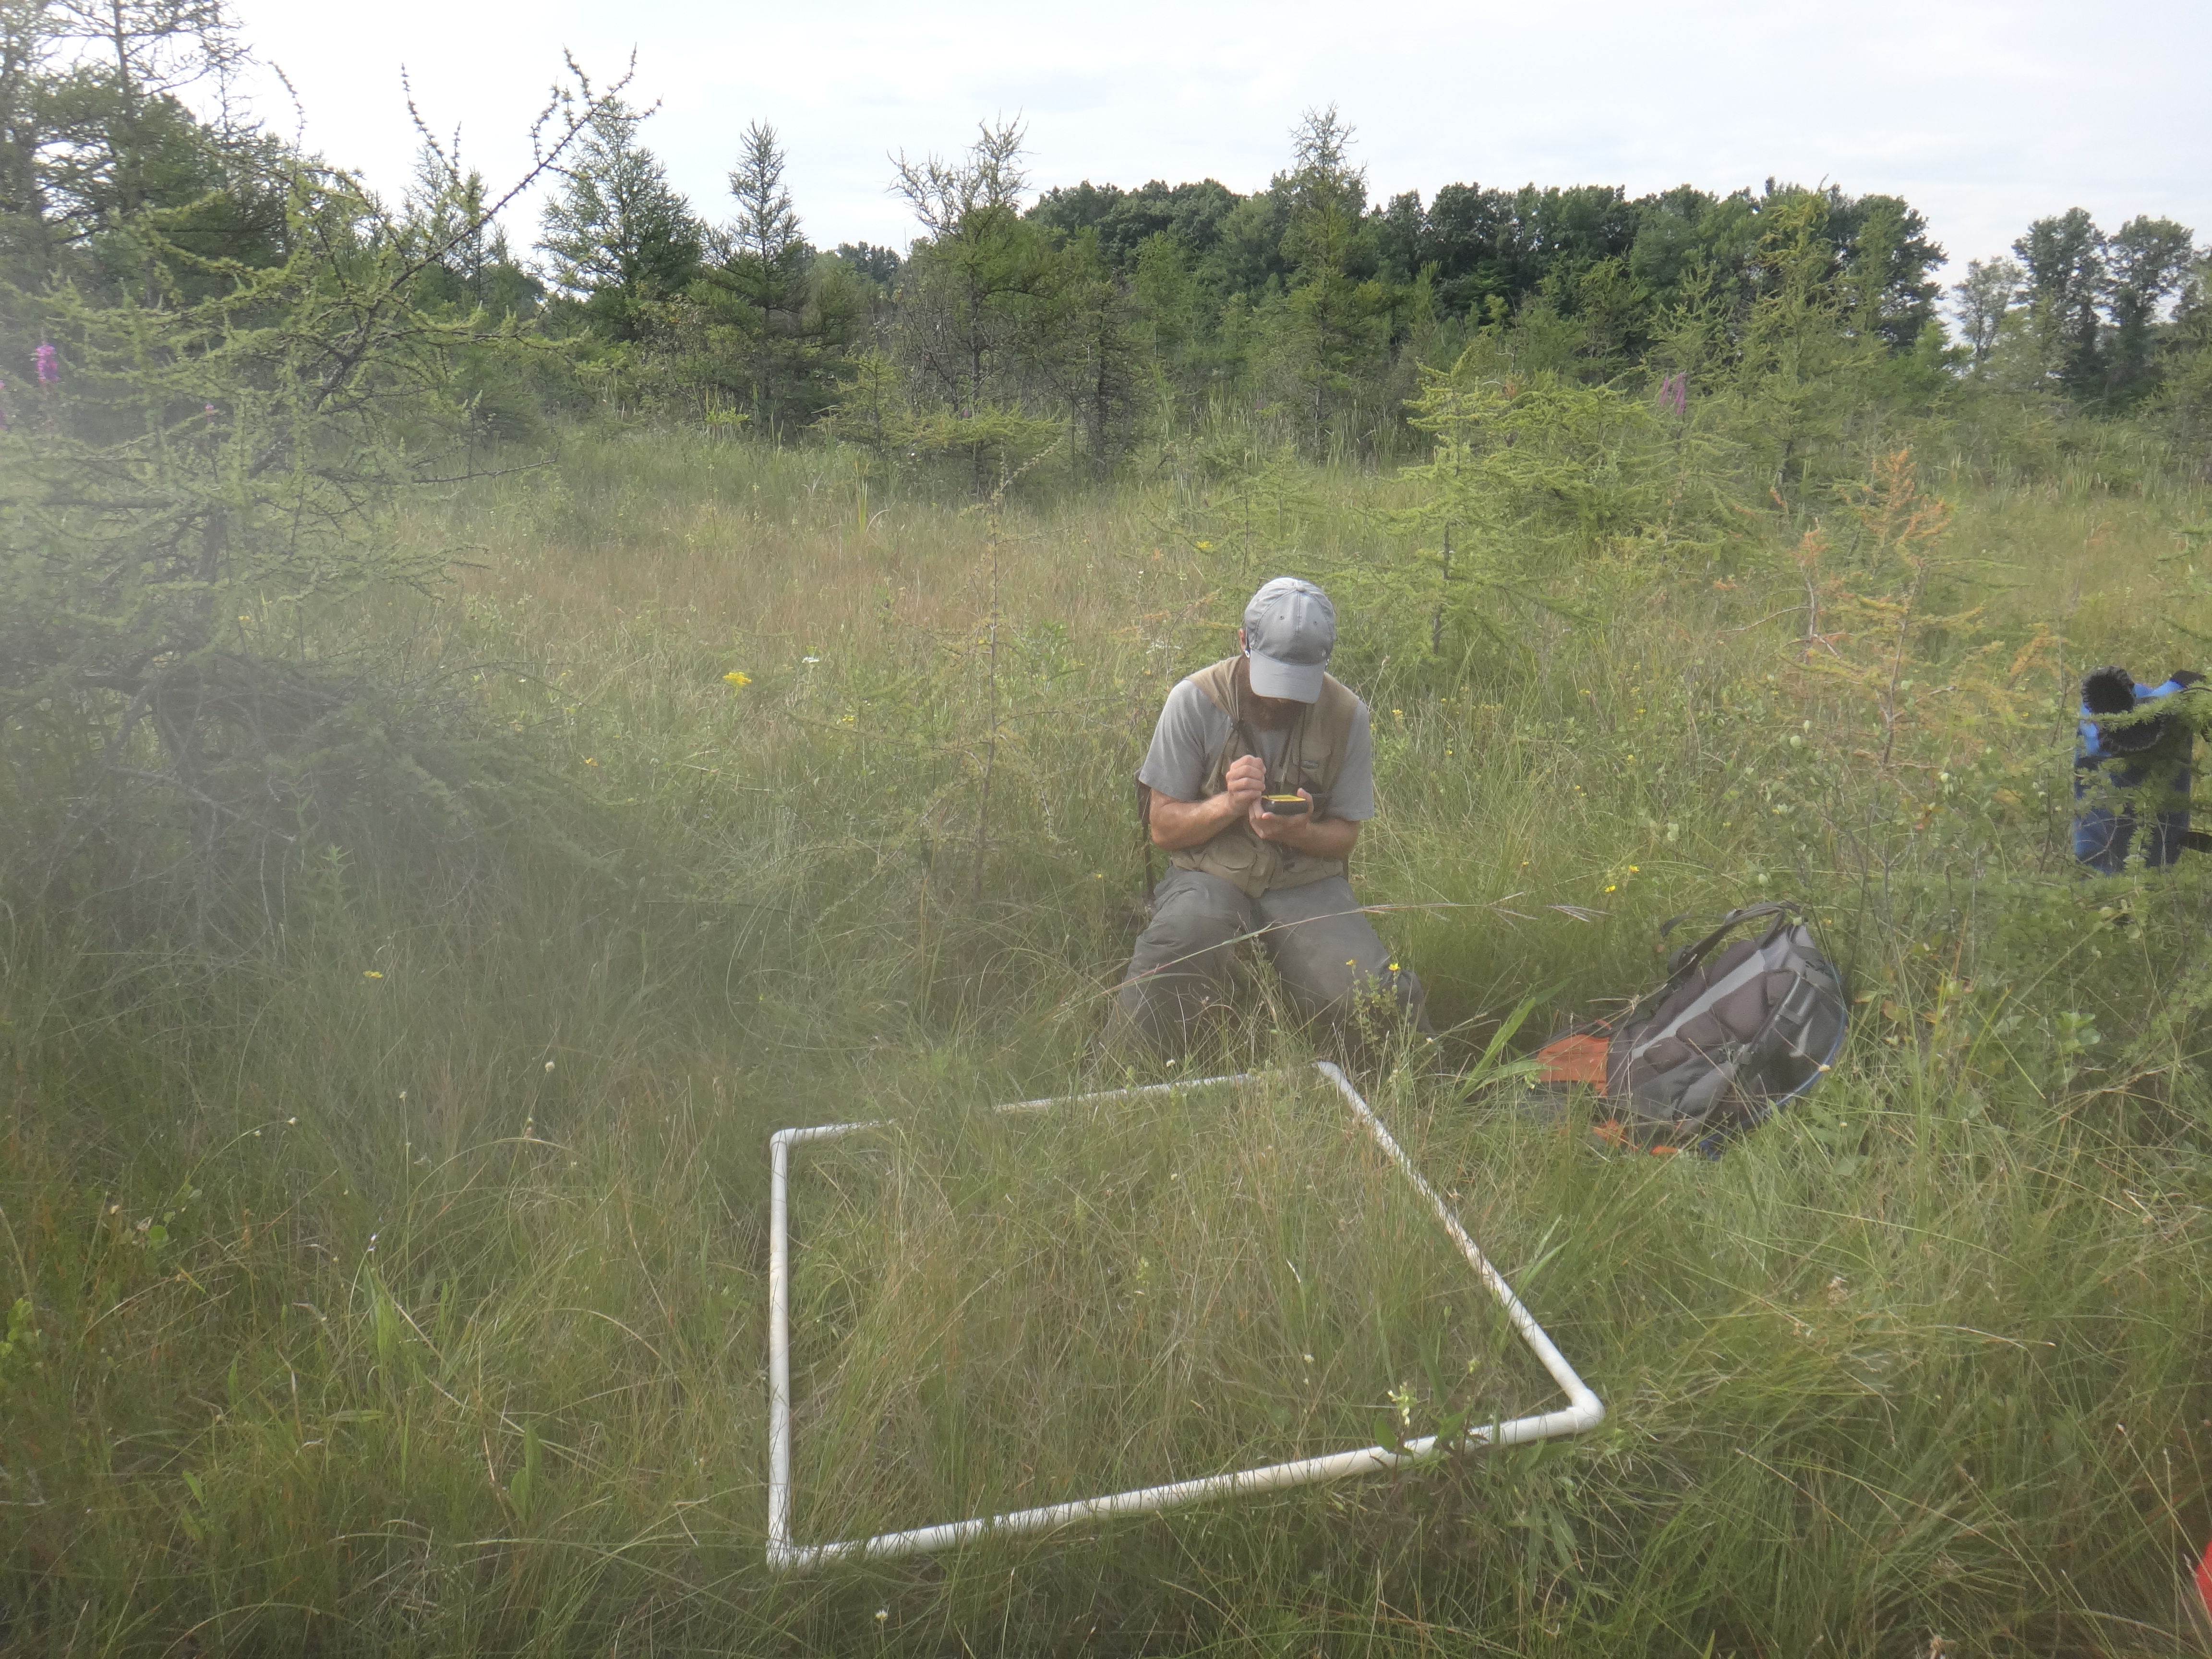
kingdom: Plantae
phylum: Tracheophyta
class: Magnoliopsida
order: Asterales
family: Asteraceae
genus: Solidago
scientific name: Solidago ohioensis
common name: Ohio goldenrod
